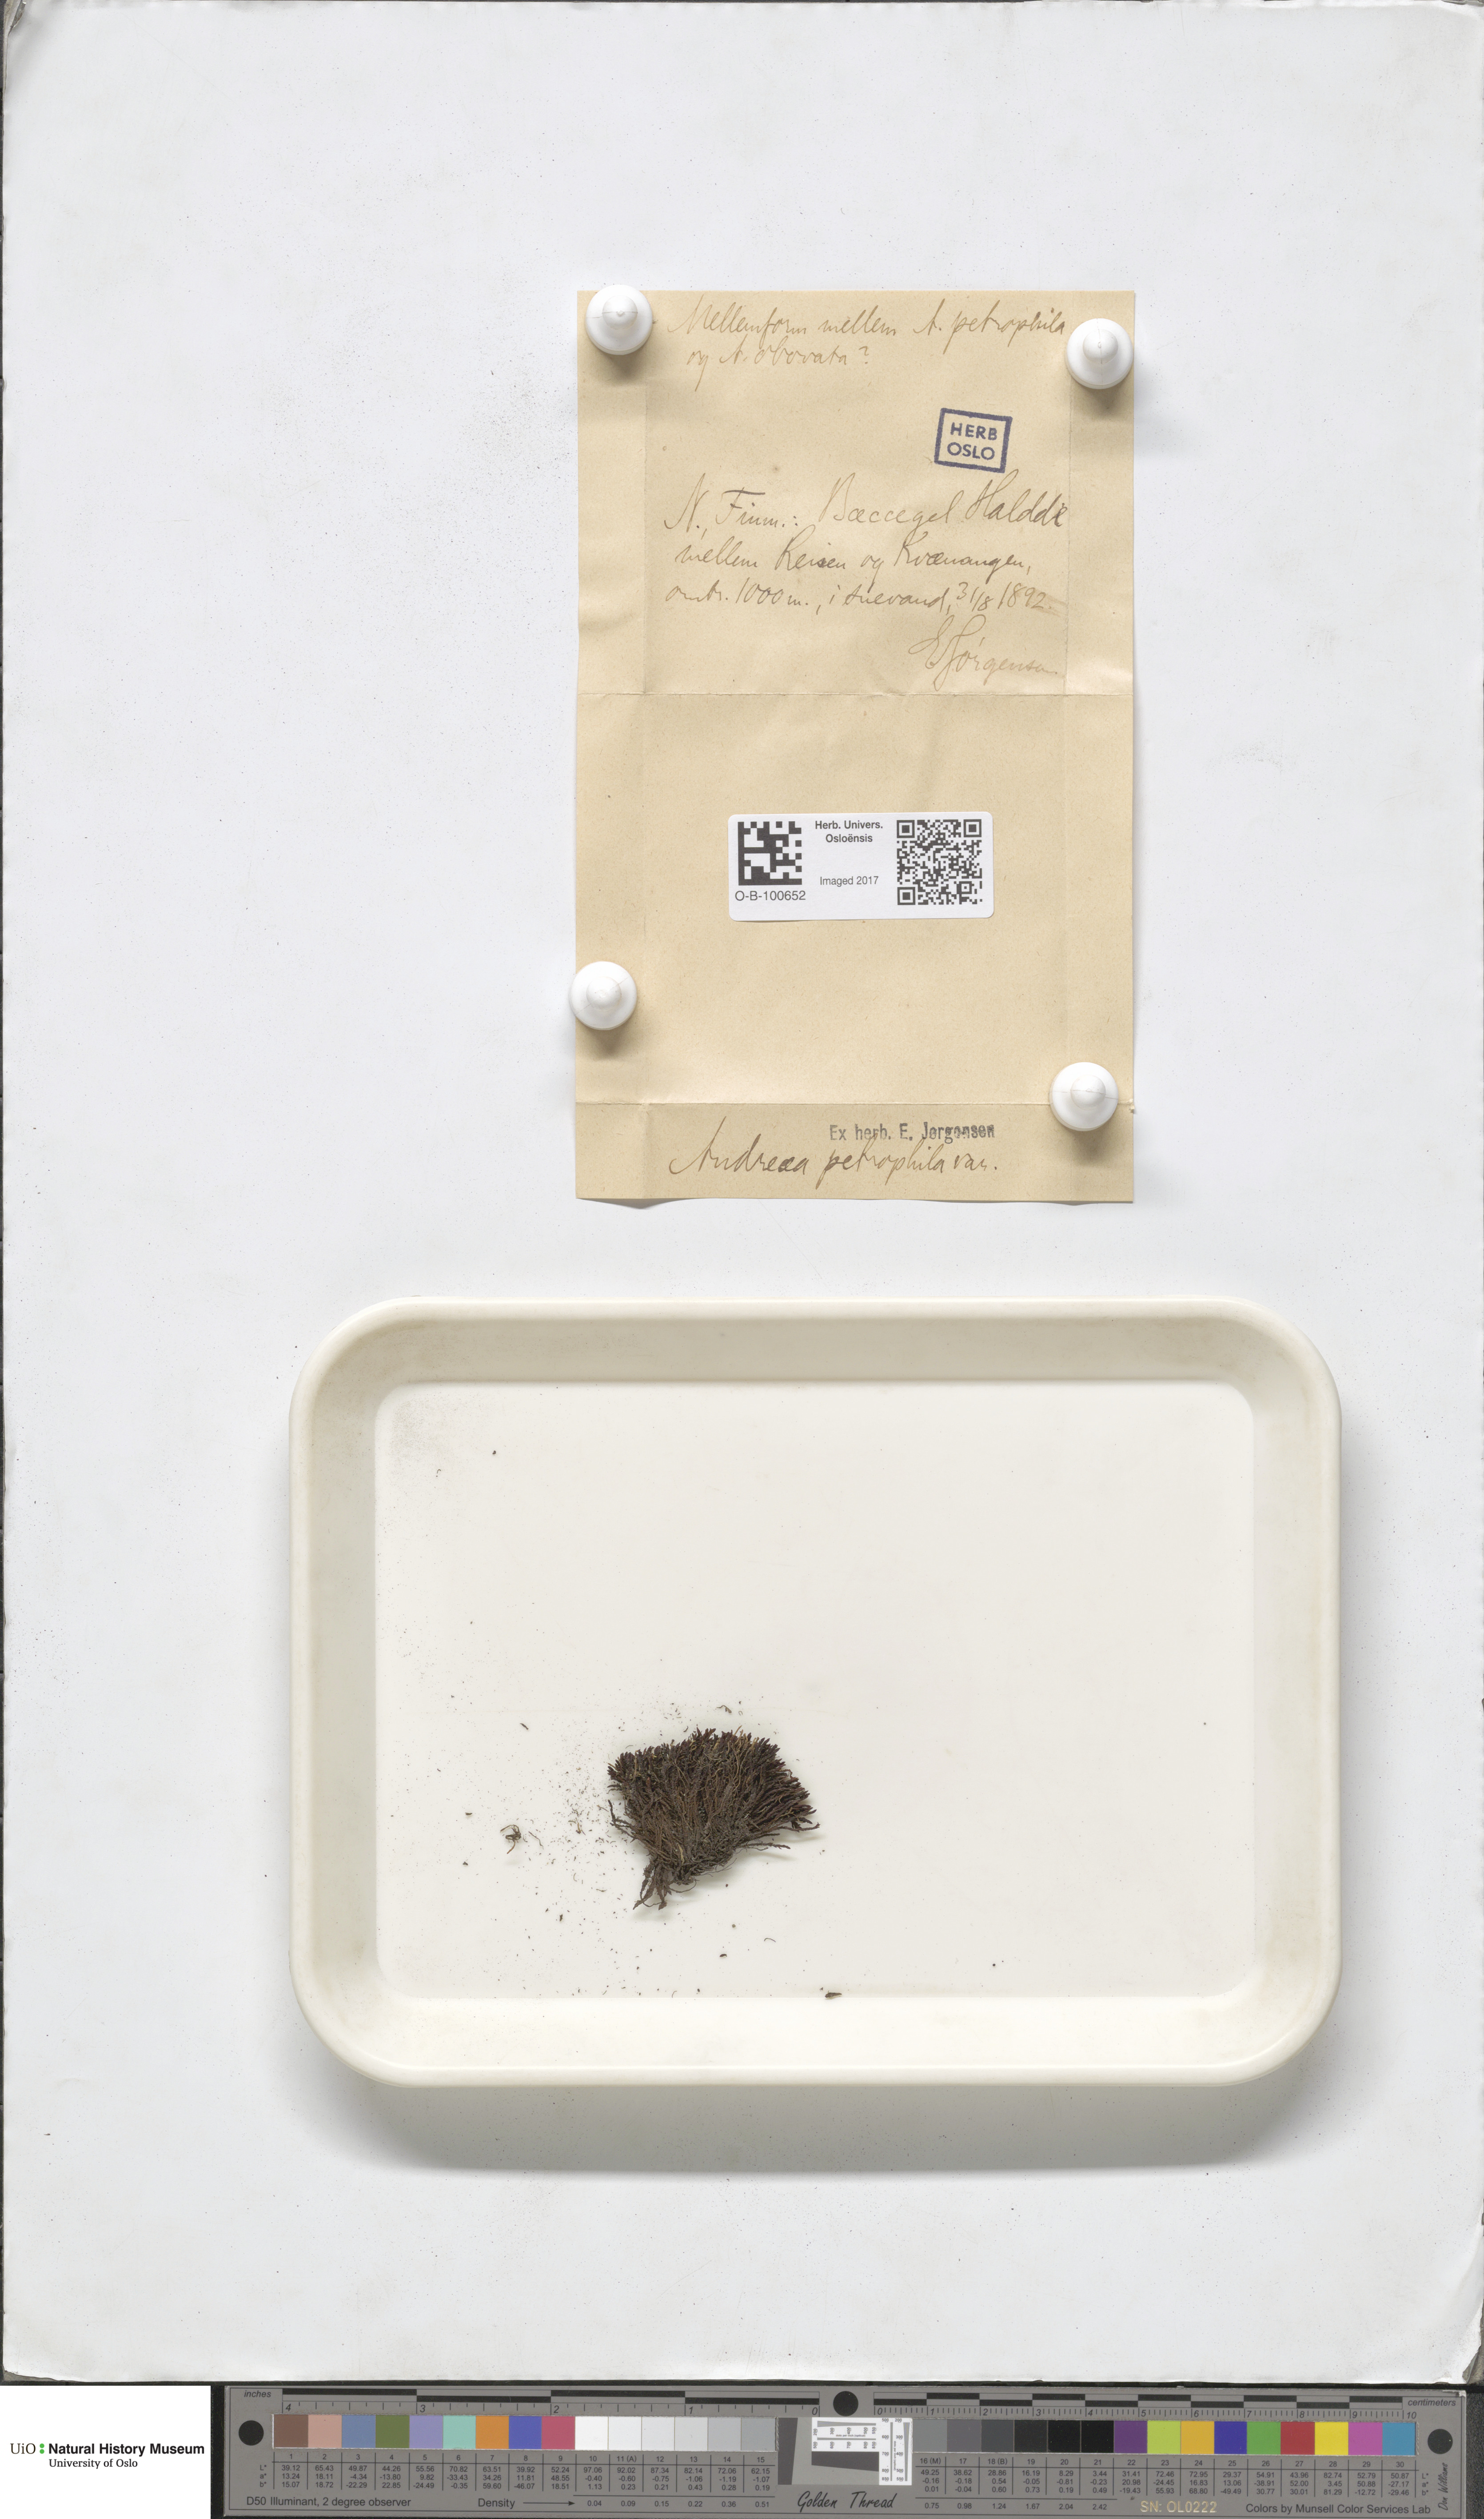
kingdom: Plantae
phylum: Bryophyta
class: Andreaeopsida
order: Andreaeales
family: Andreaeaceae
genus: Andreaea
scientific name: Andreaea alpina
